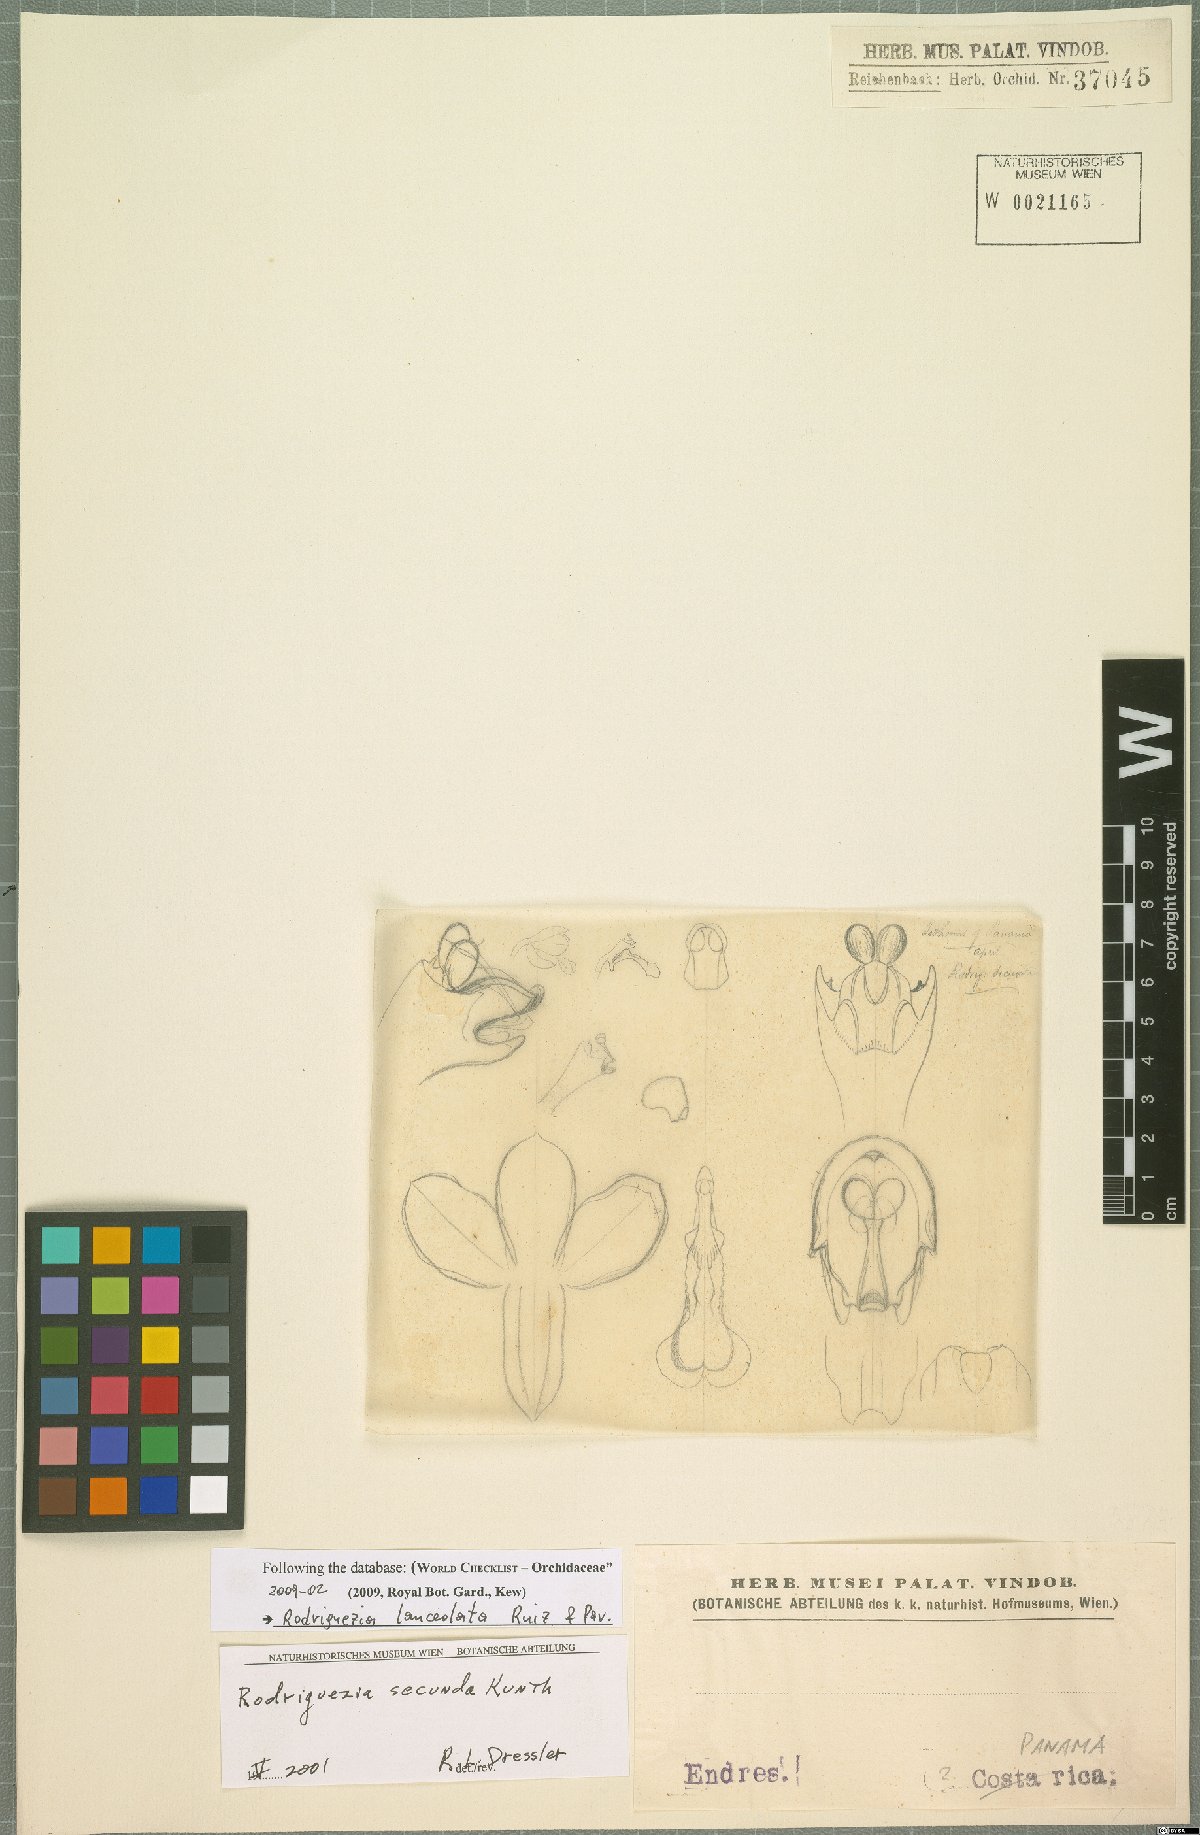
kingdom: Plantae
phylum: Tracheophyta
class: Liliopsida
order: Asparagales
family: Orchidaceae
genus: Rodriguezia
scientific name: Rodriguezia lanceolata
